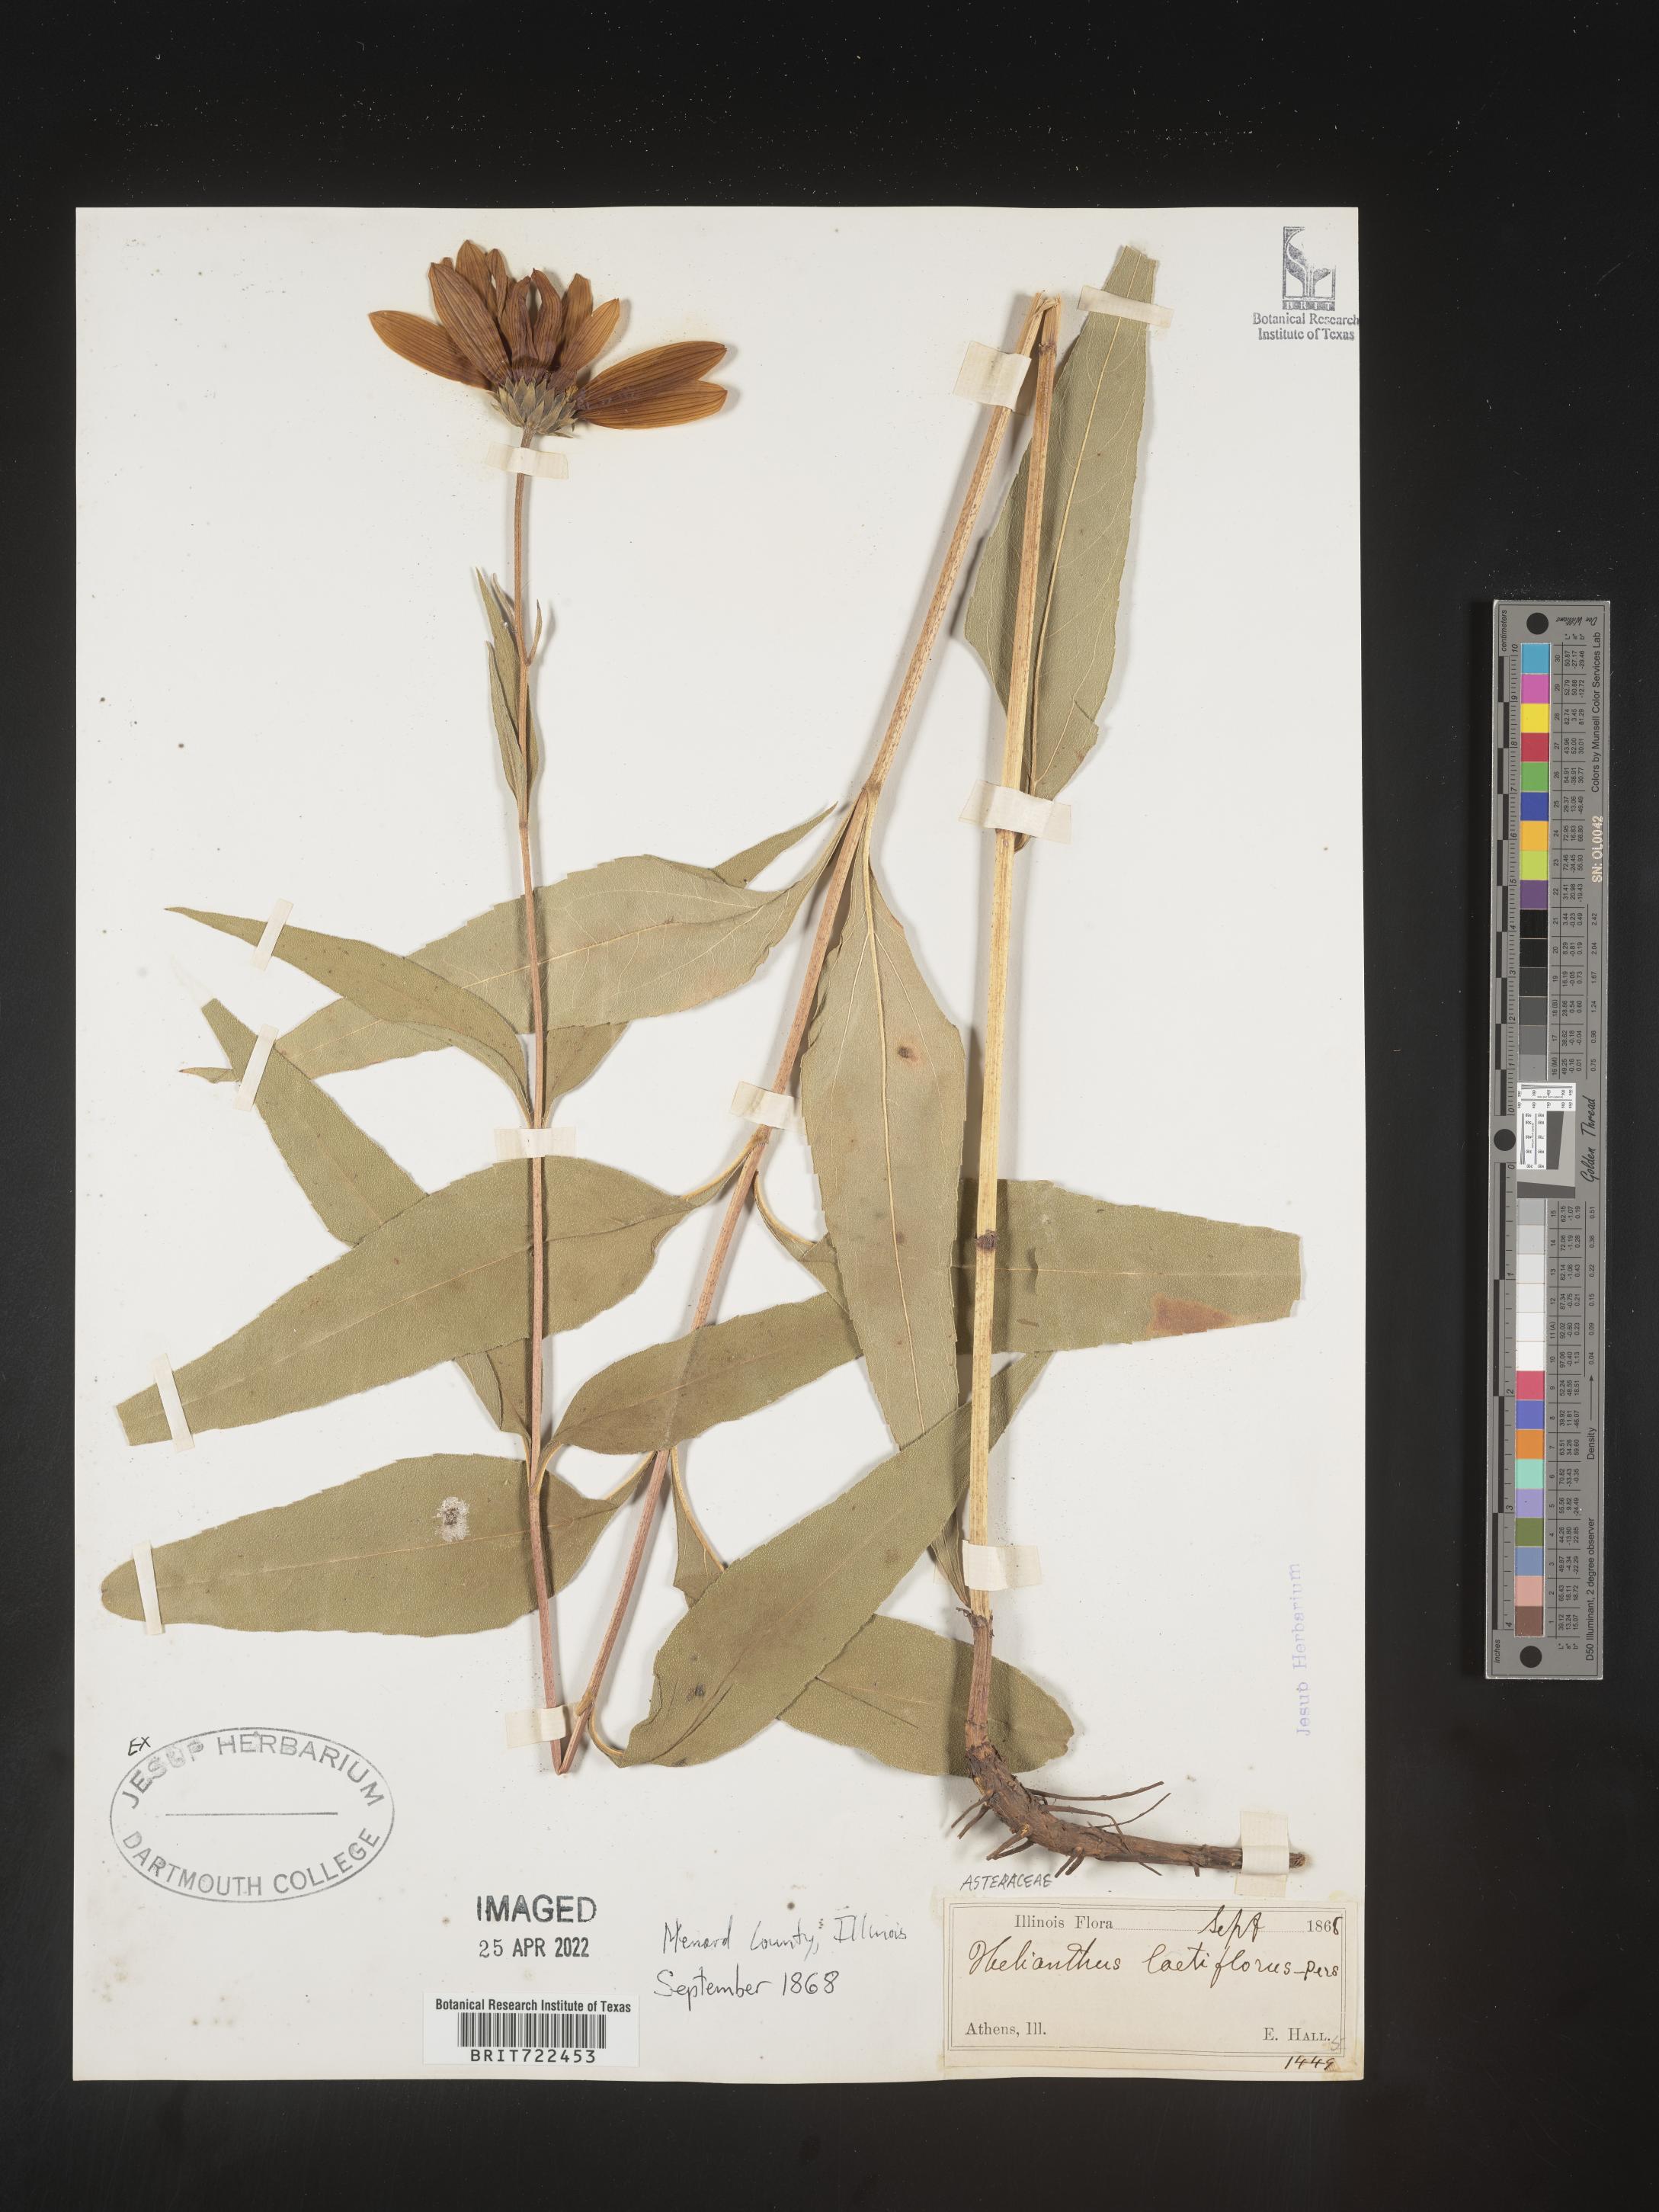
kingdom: Plantae
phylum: Tracheophyta
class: Magnoliopsida
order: Asterales
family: Asteraceae
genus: Helianthus
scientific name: Helianthus laetiflorus
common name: Perennial sunflower
